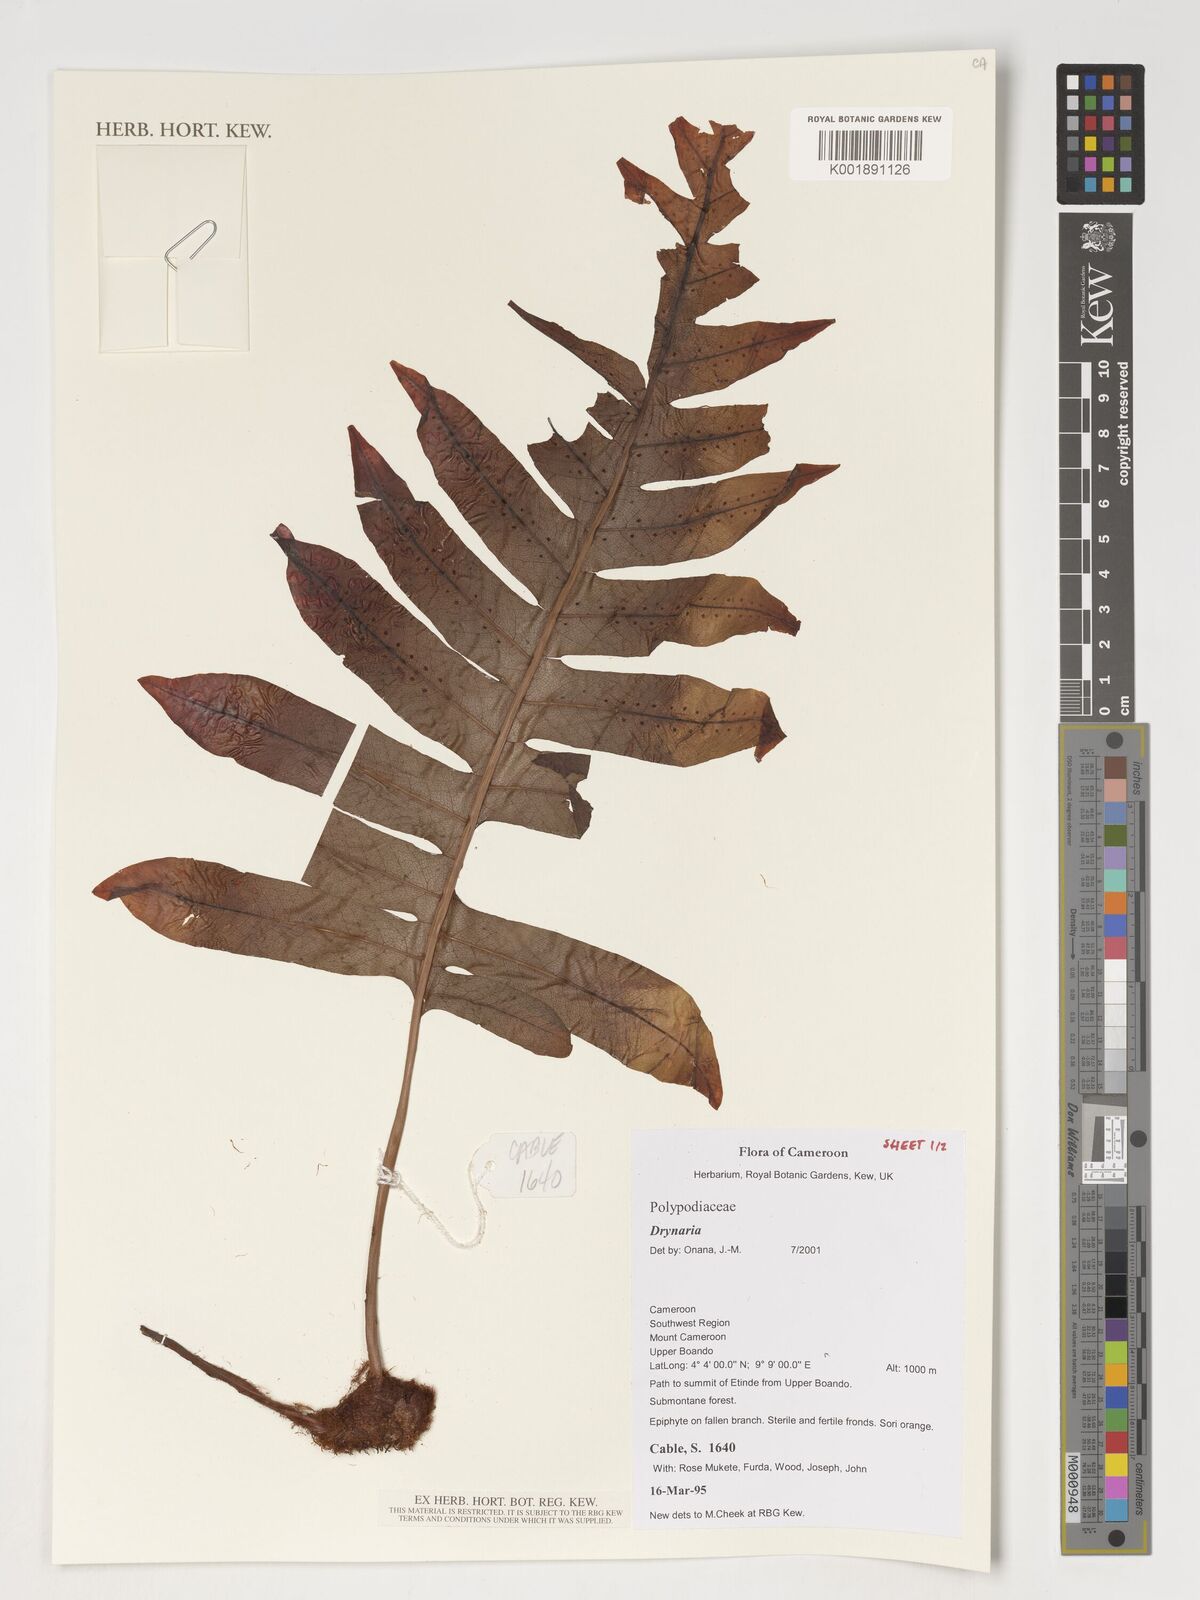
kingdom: Plantae
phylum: Tracheophyta
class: Polypodiopsida
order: Polypodiales
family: Polypodiaceae
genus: Drynaria
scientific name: Drynaria
